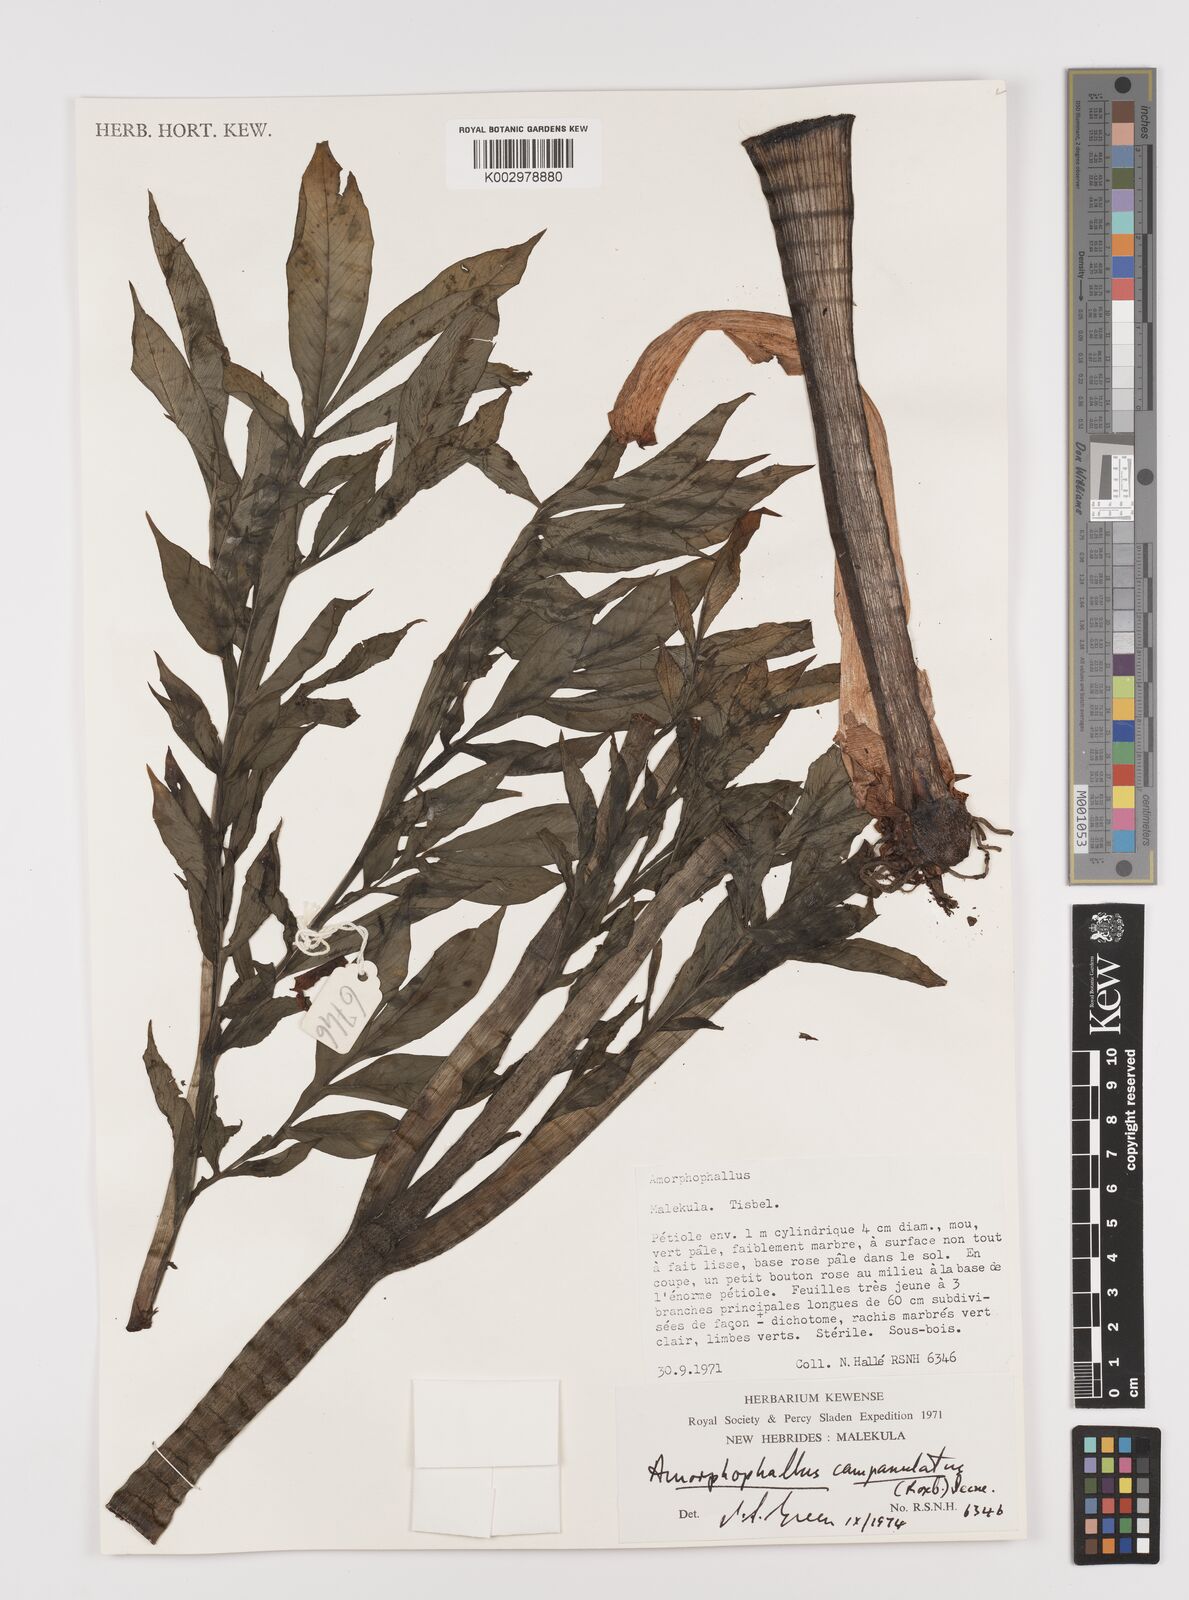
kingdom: Plantae
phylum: Tracheophyta
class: Liliopsida
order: Alismatales
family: Araceae
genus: Amorphophallus
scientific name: Amorphophallus paeoniifolius
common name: Telinga-potato
